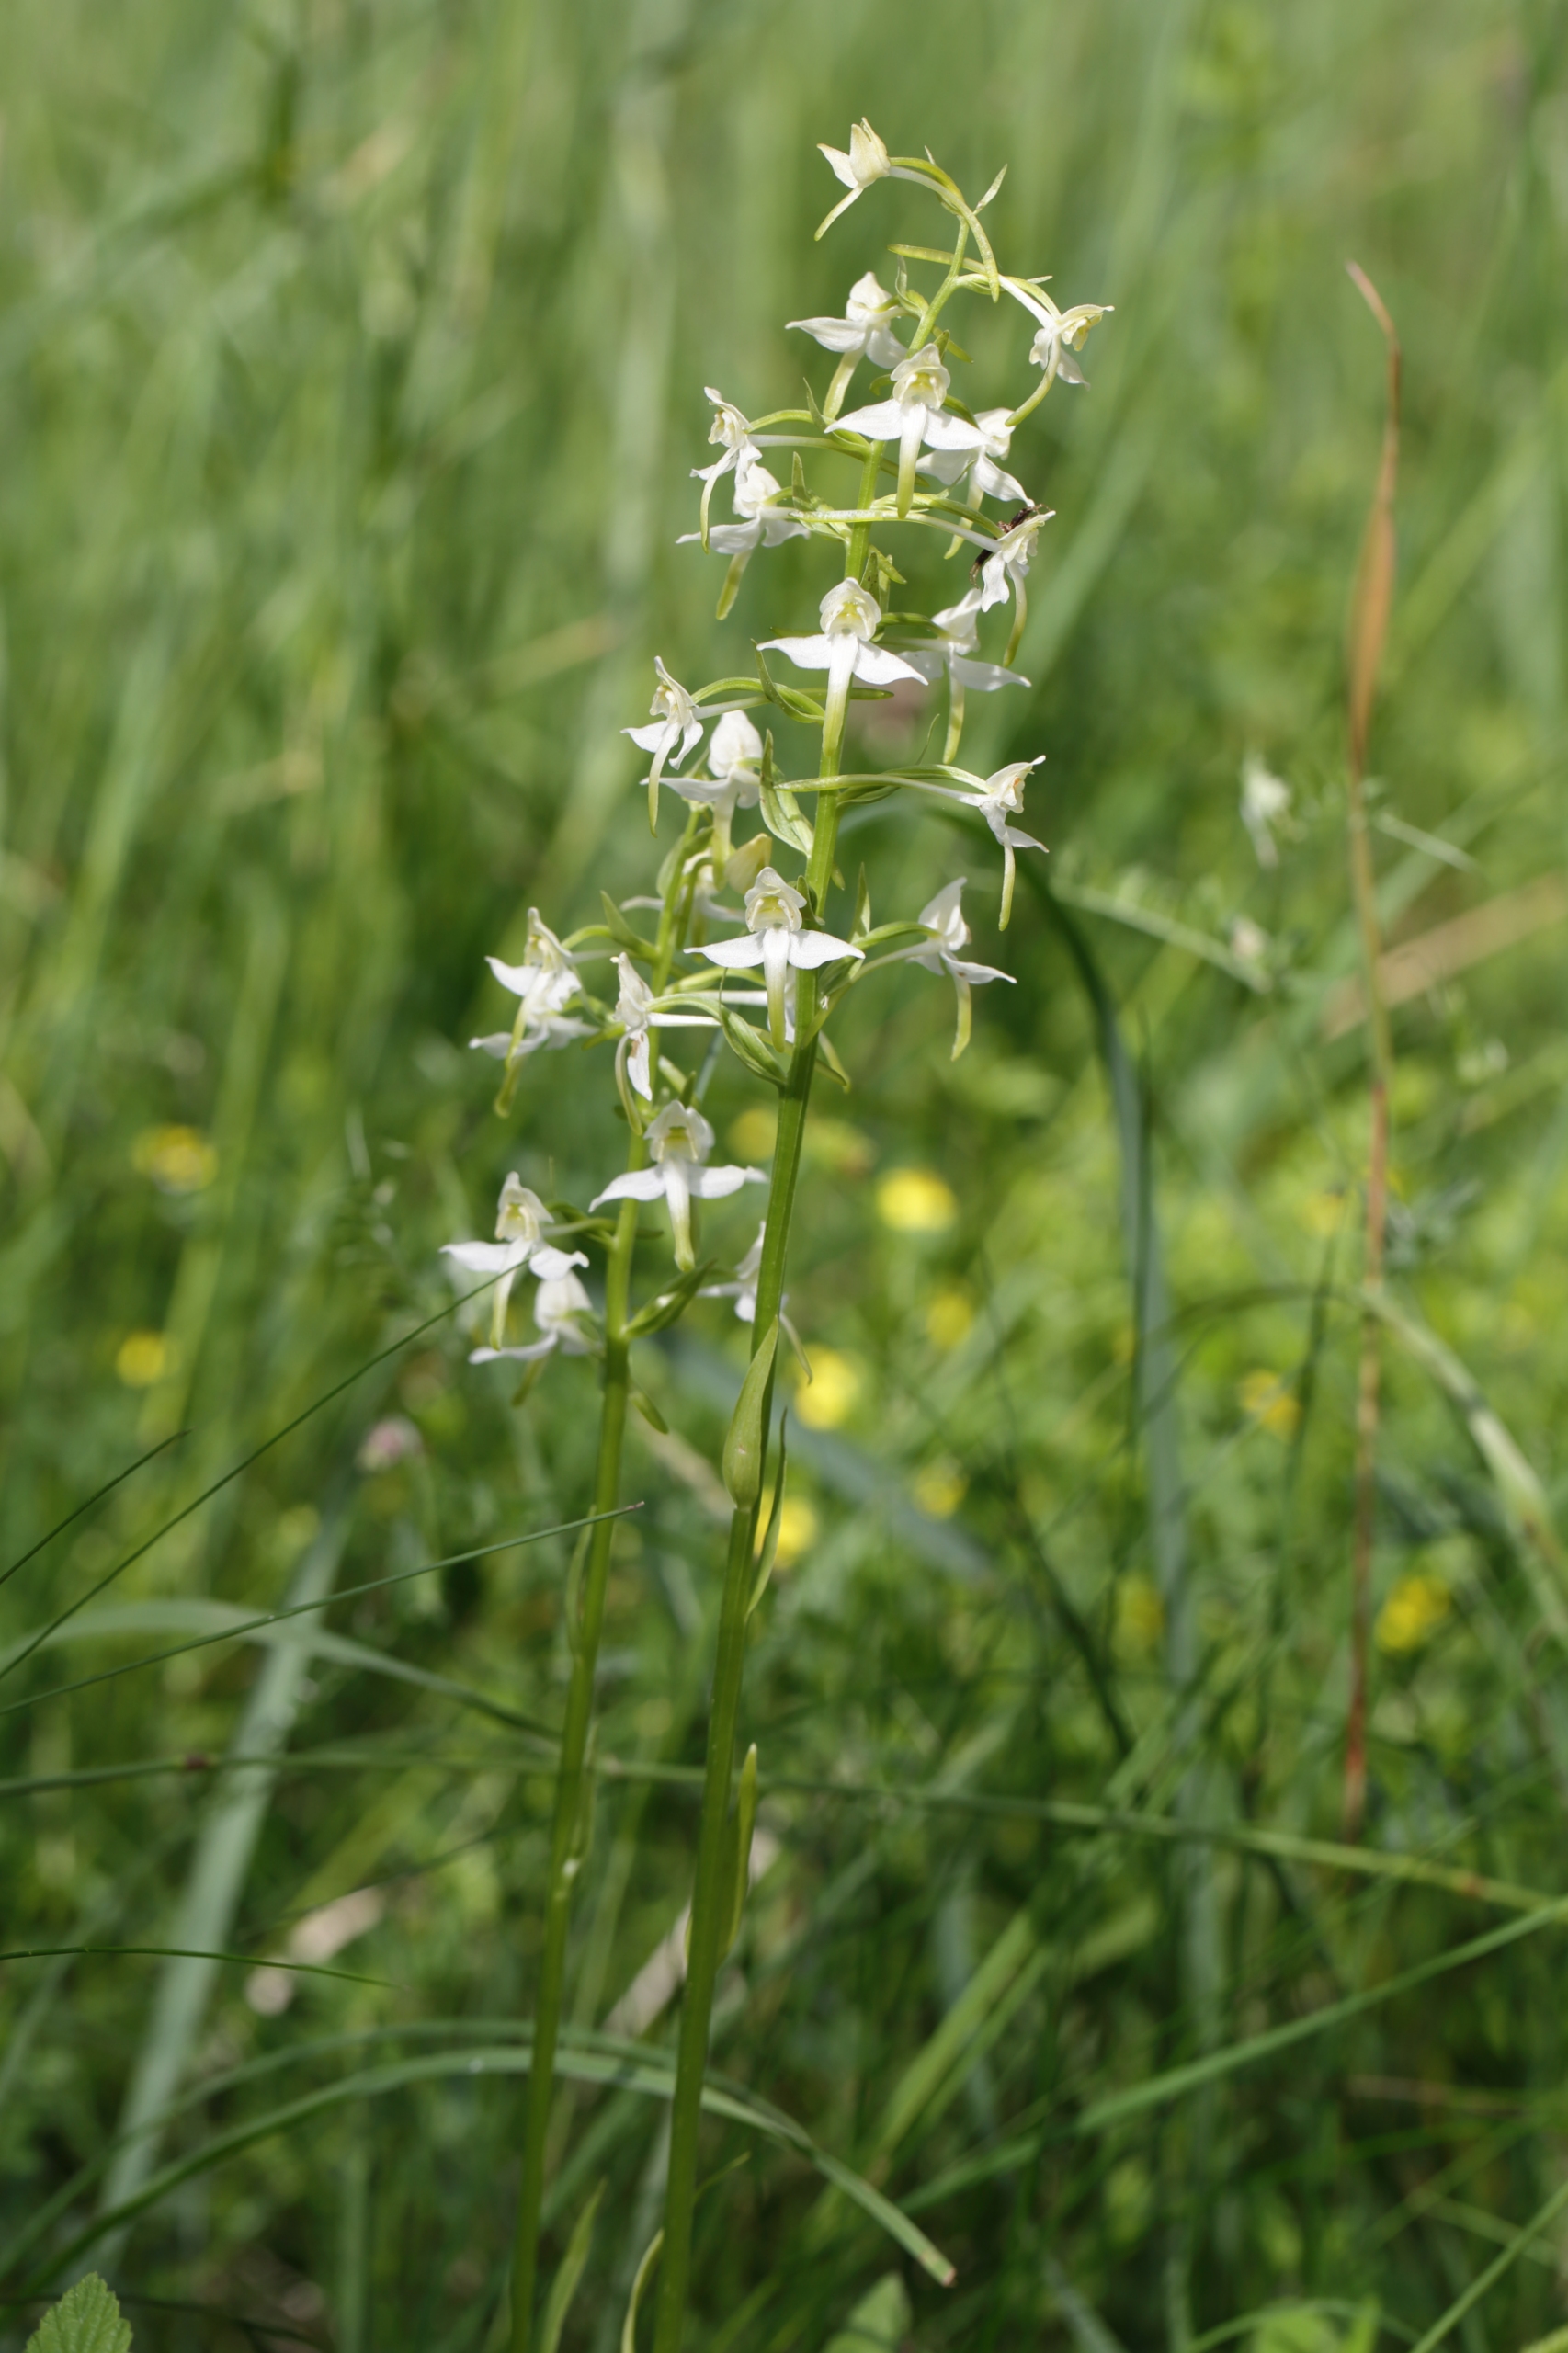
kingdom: Plantae
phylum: Tracheophyta
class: Liliopsida
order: Asparagales
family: Orchidaceae
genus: Platanthera
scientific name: Platanthera chlorantha
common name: Skov-gøgelilje
